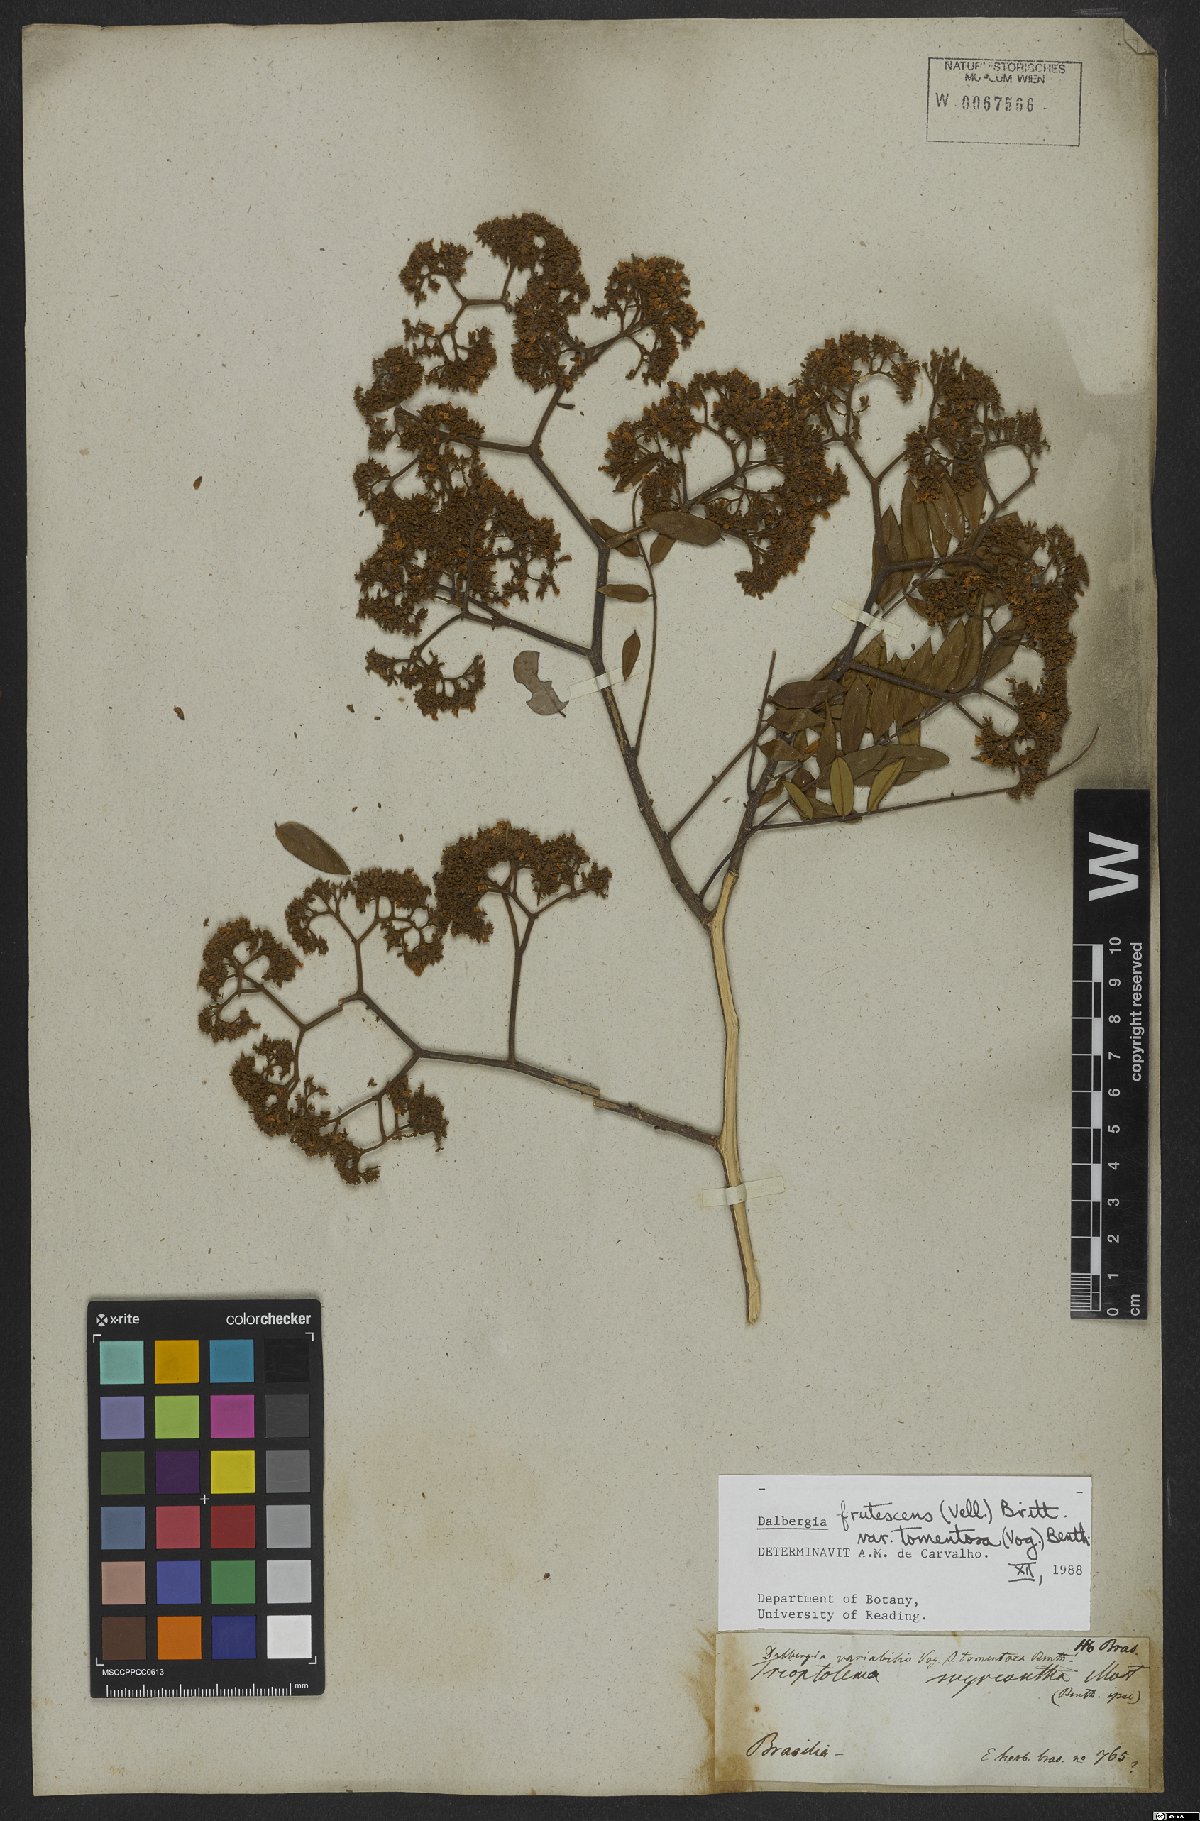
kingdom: Plantae
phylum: Tracheophyta
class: Magnoliopsida
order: Fabales
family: Fabaceae
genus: Dalbergia
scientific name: Dalbergia frutescens
